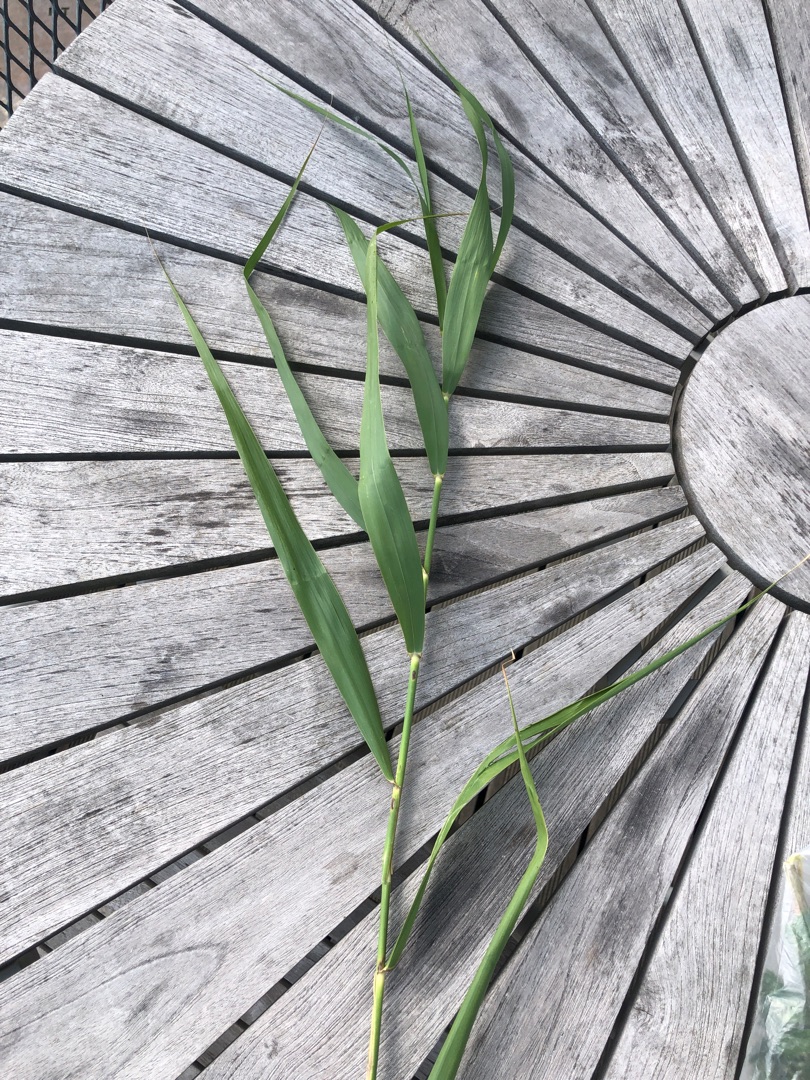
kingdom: Plantae
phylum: Tracheophyta
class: Liliopsida
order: Poales
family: Poaceae
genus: Phragmites
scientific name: Phragmites australis
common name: Tagrør
